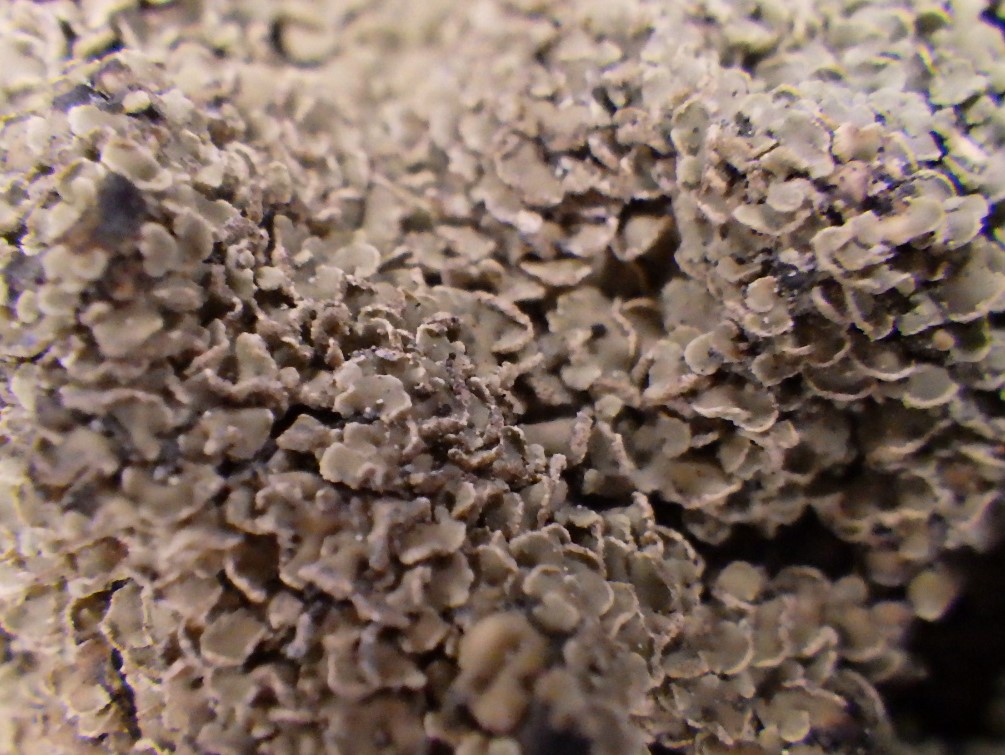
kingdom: Fungi
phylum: Ascomycota
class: Lecanoromycetes
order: Umbilicariales
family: Ophioparmaceae
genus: Hypocenomyce
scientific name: Hypocenomyce scalaris
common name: småskællet muslinglav
